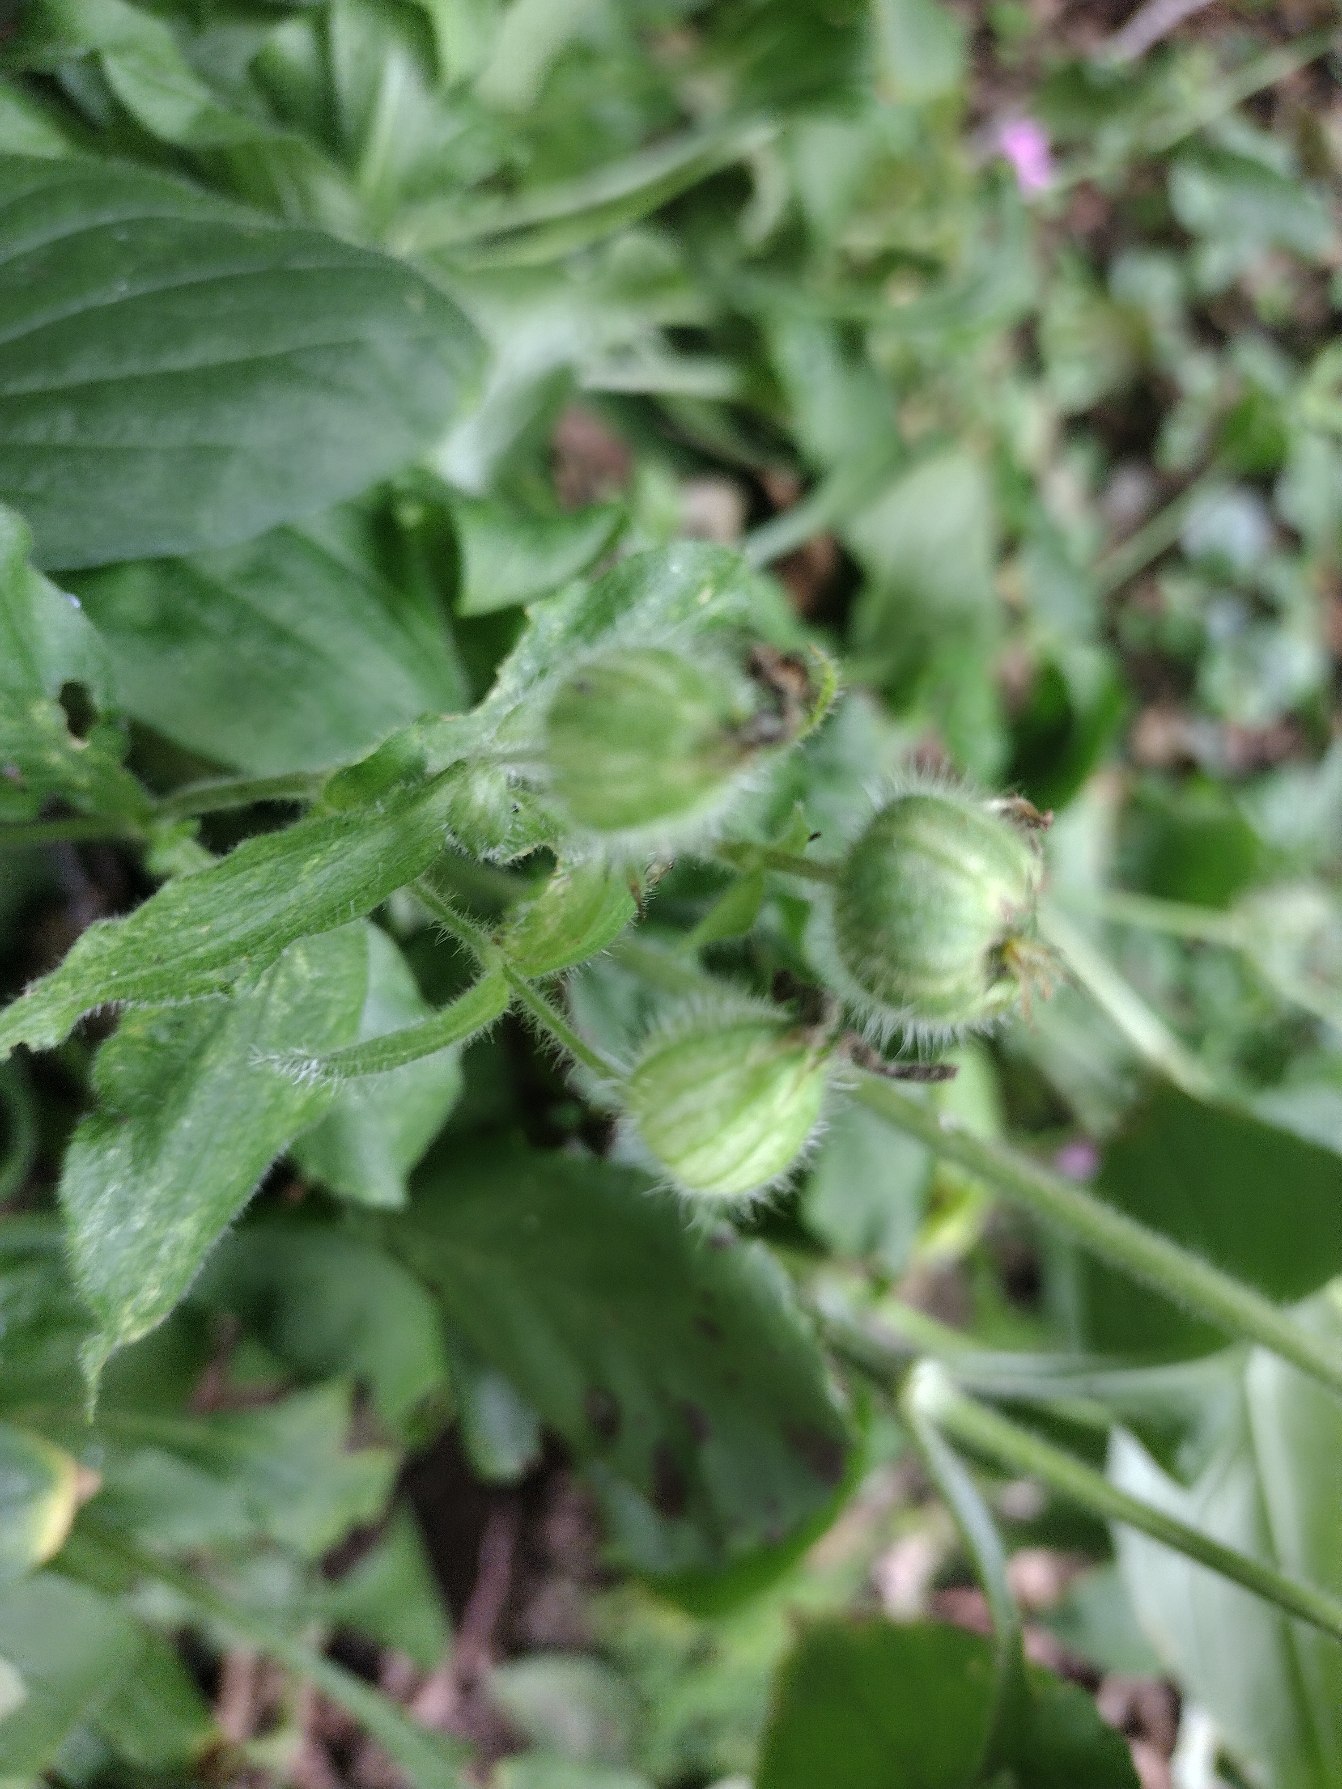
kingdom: Plantae
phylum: Tracheophyta
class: Magnoliopsida
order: Caryophyllales
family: Caryophyllaceae
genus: Silene
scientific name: Silene dioica
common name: Dagpragtstjerne
